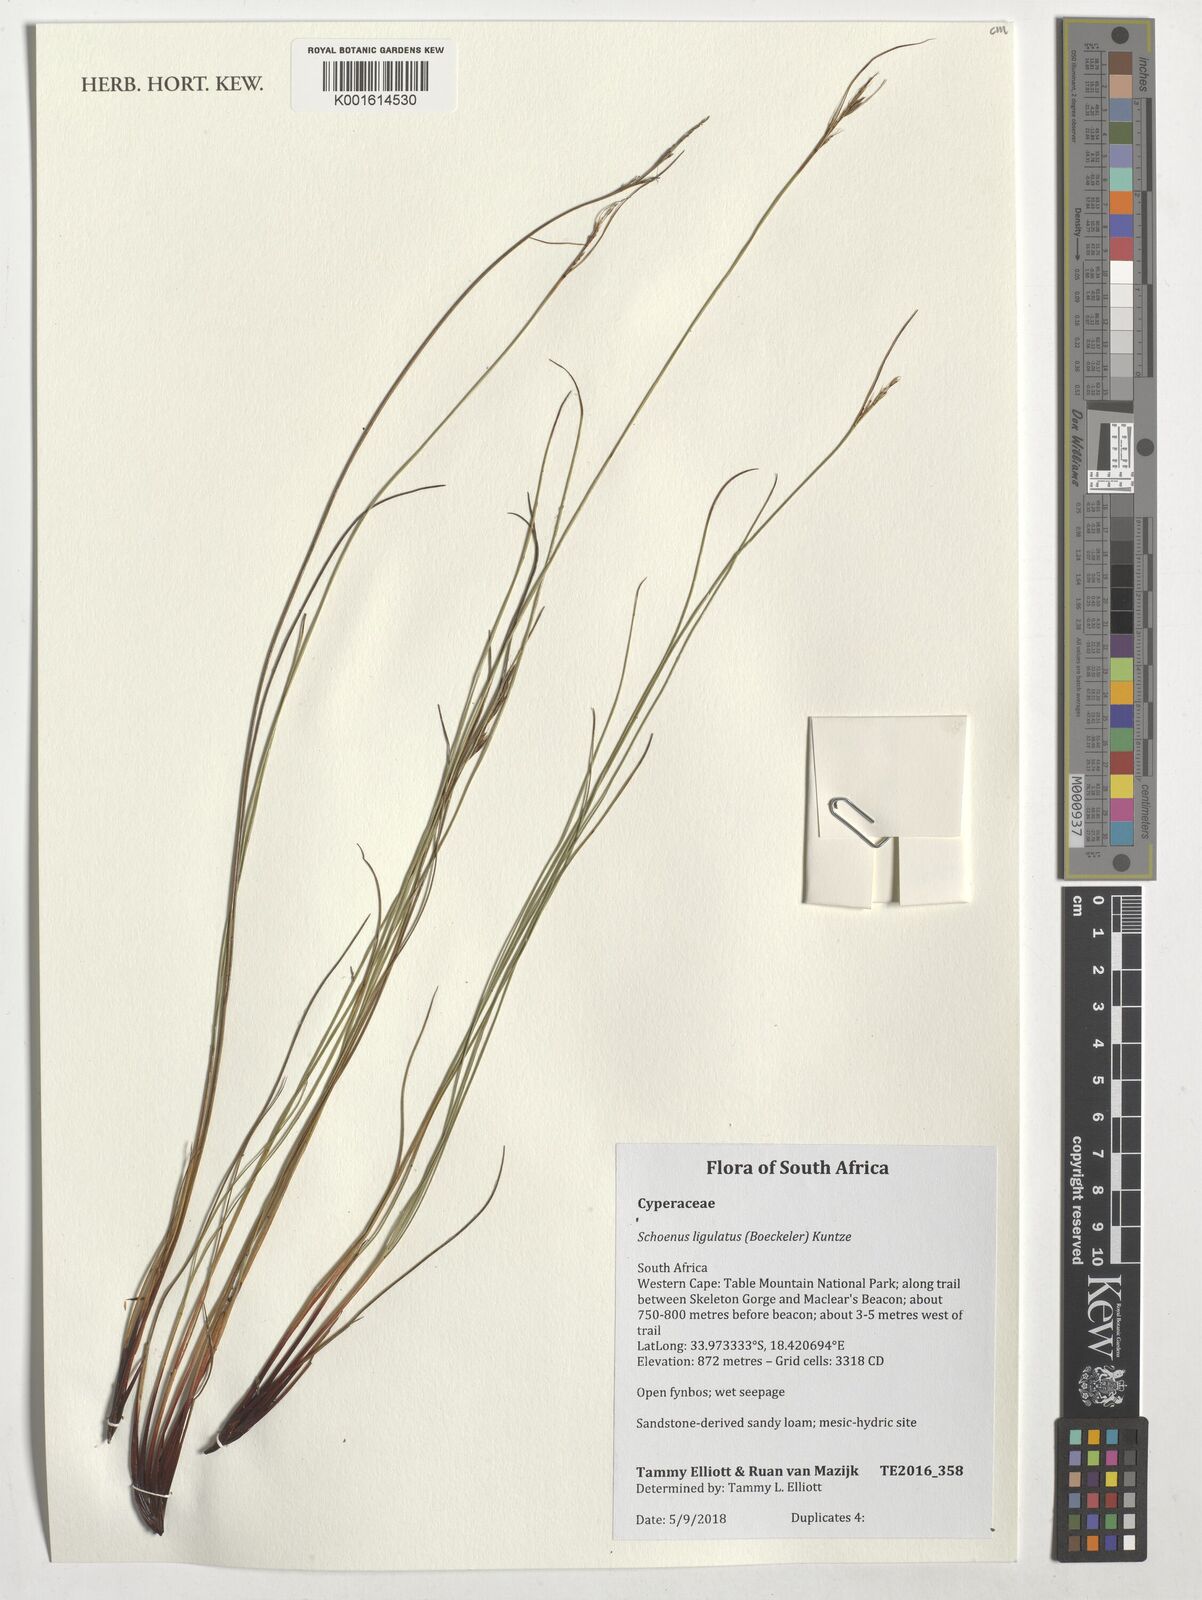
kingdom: Plantae
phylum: Tracheophyta
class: Liliopsida
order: Poales
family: Cyperaceae
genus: Schoenus
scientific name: Schoenus ligulatus
